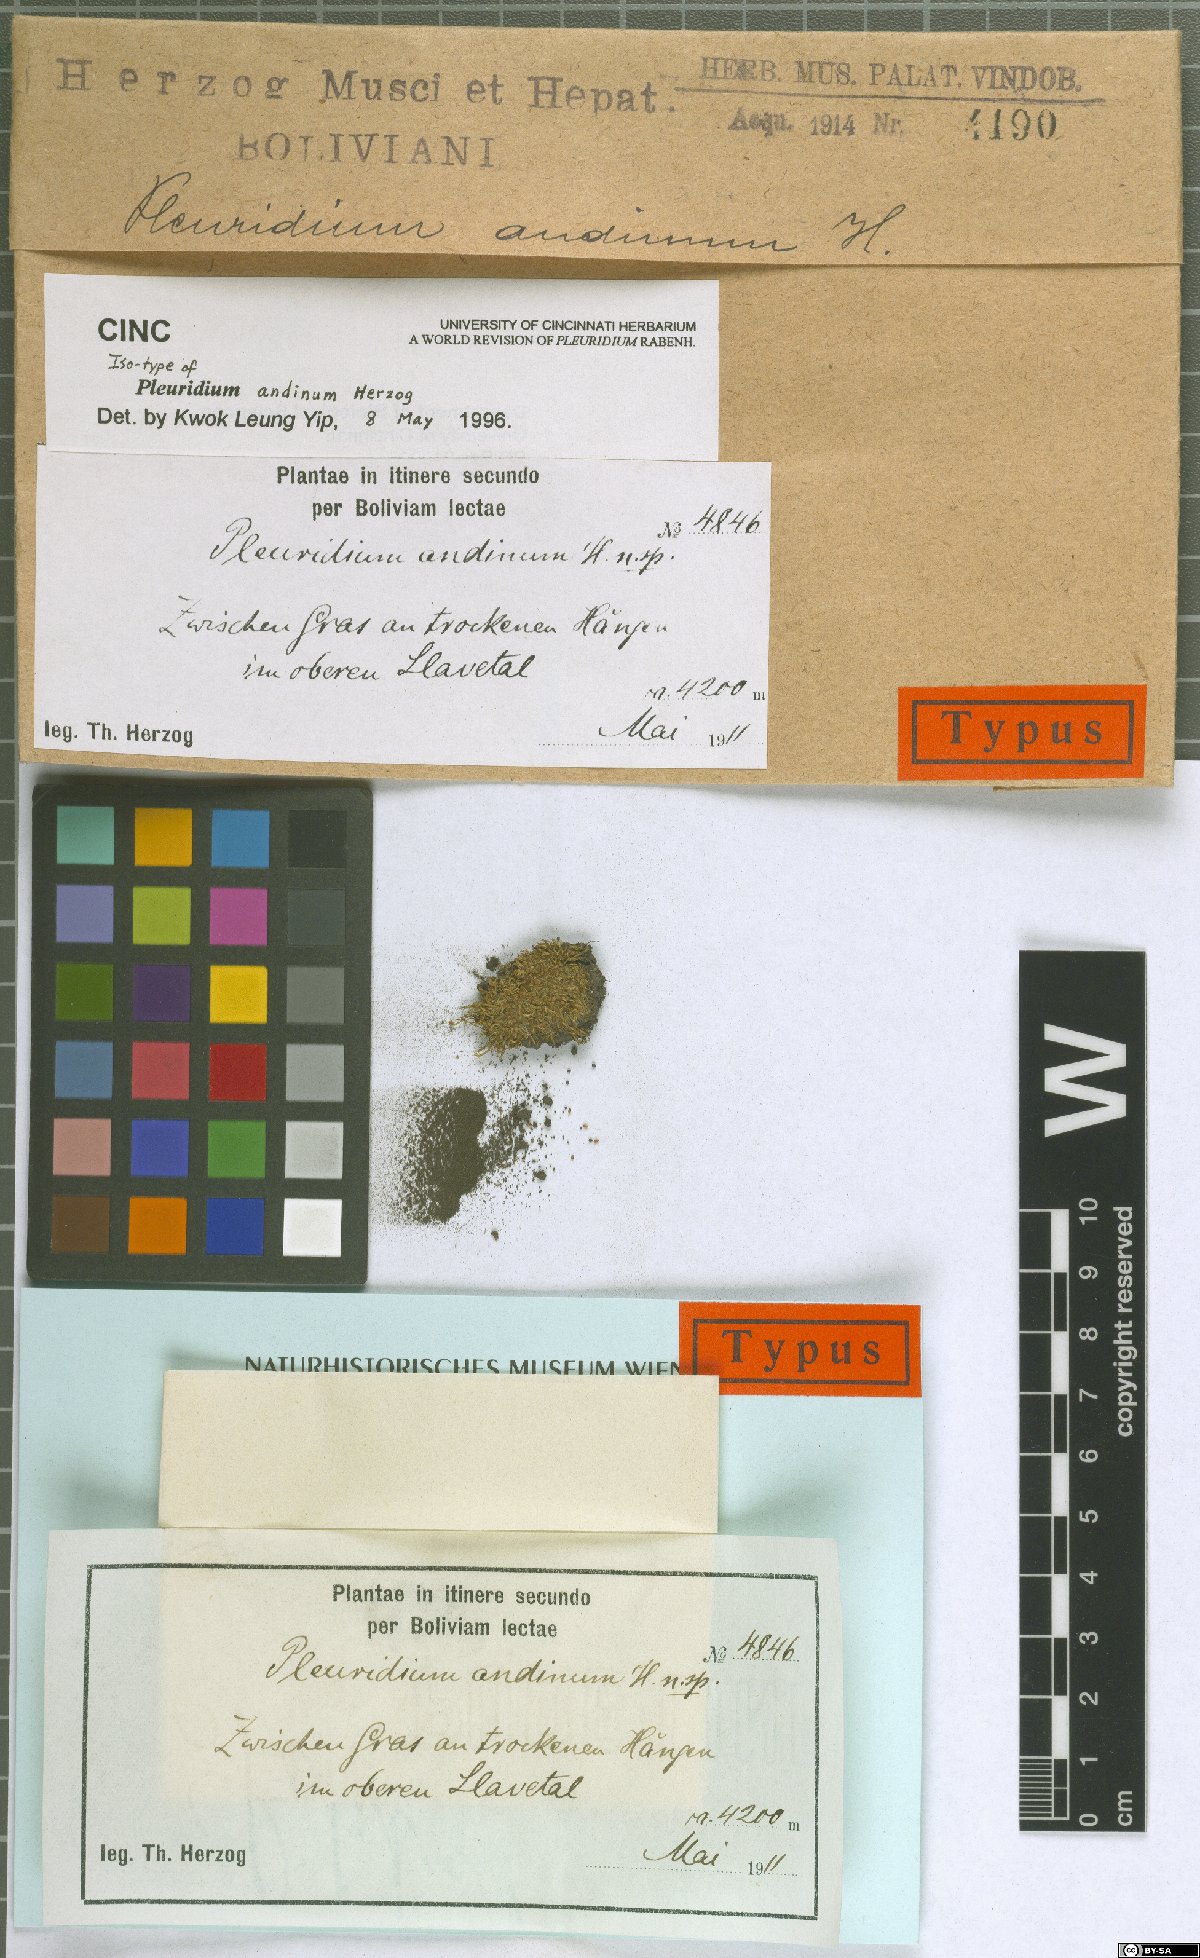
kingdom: Plantae
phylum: Bryophyta
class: Bryopsida
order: Dicranales
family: Ditrichaceae
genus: Pleuridium
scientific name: Pleuridium andinum
